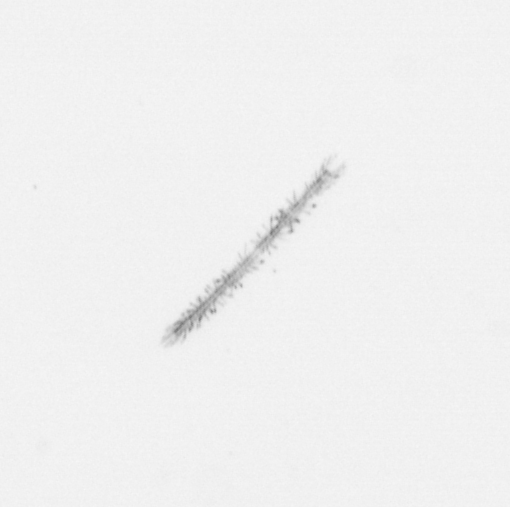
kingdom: Chromista
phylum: Ochrophyta
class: Bacillariophyceae
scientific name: Bacillariophyceae
